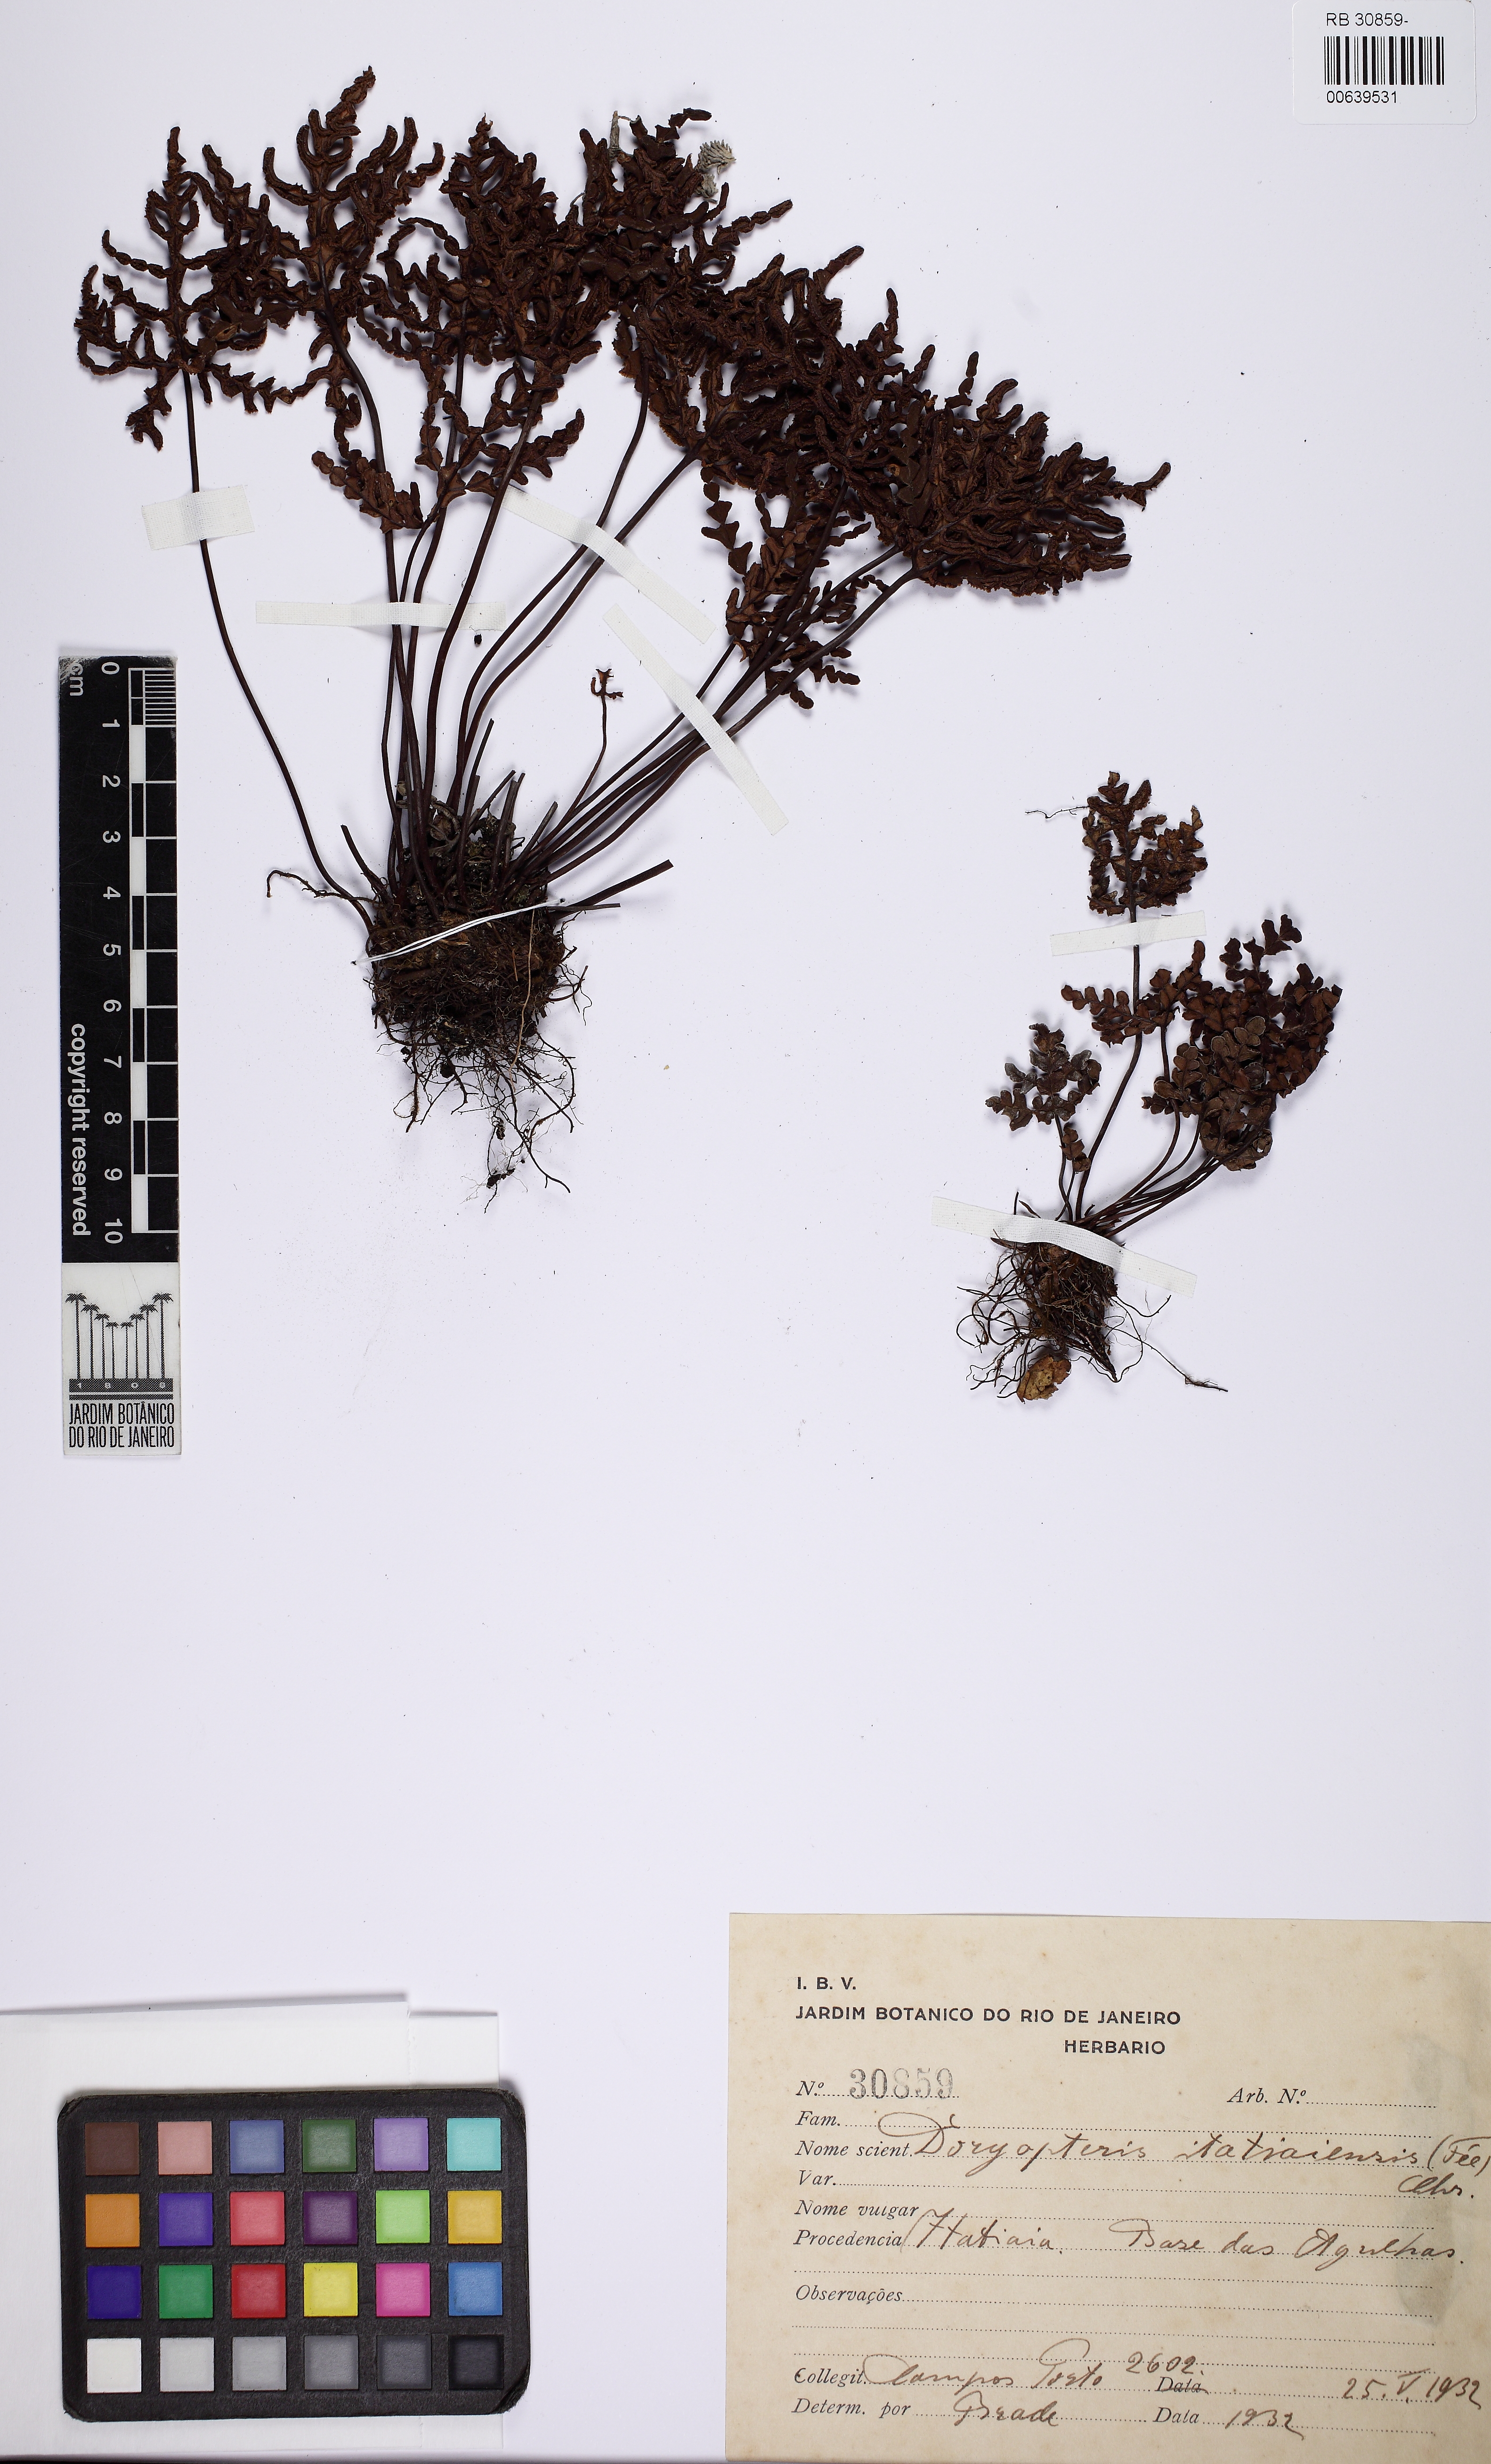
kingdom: Plantae
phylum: Tracheophyta
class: Polypodiopsida
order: Polypodiales
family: Pteridaceae
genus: Lytoneuron
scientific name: Lytoneuron itatiaiense
